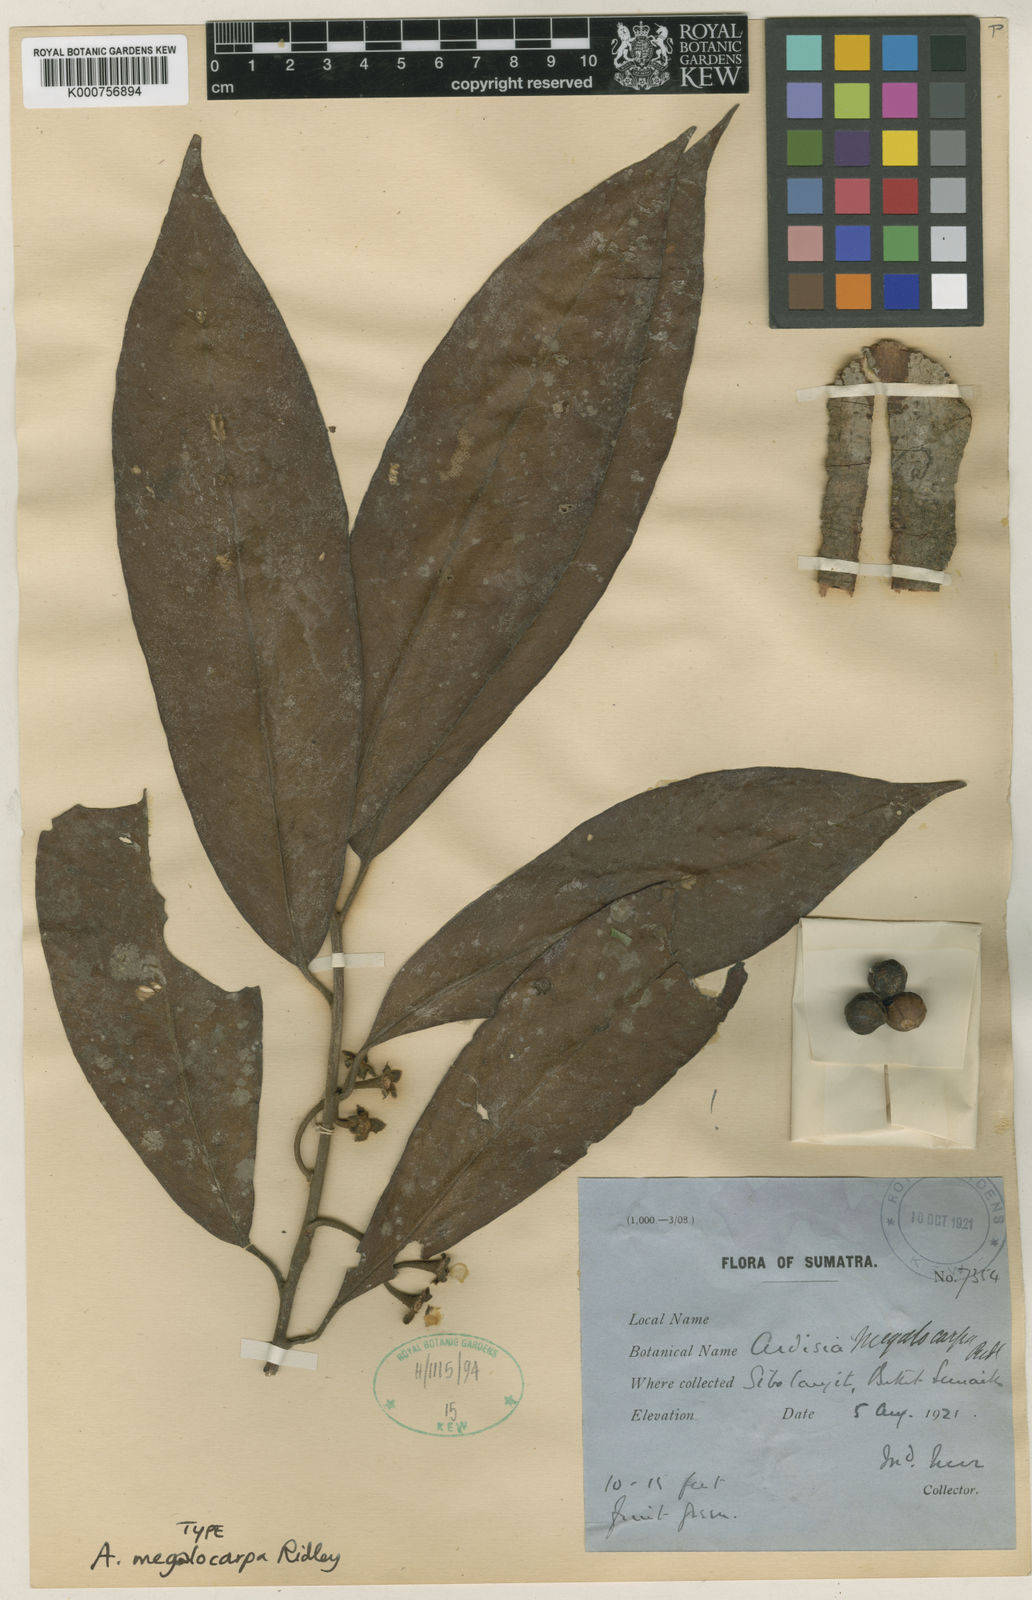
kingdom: Plantae
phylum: Tracheophyta
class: Magnoliopsida
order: Ericales
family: Primulaceae
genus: Ardisia
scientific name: Ardisia megalocarpa
